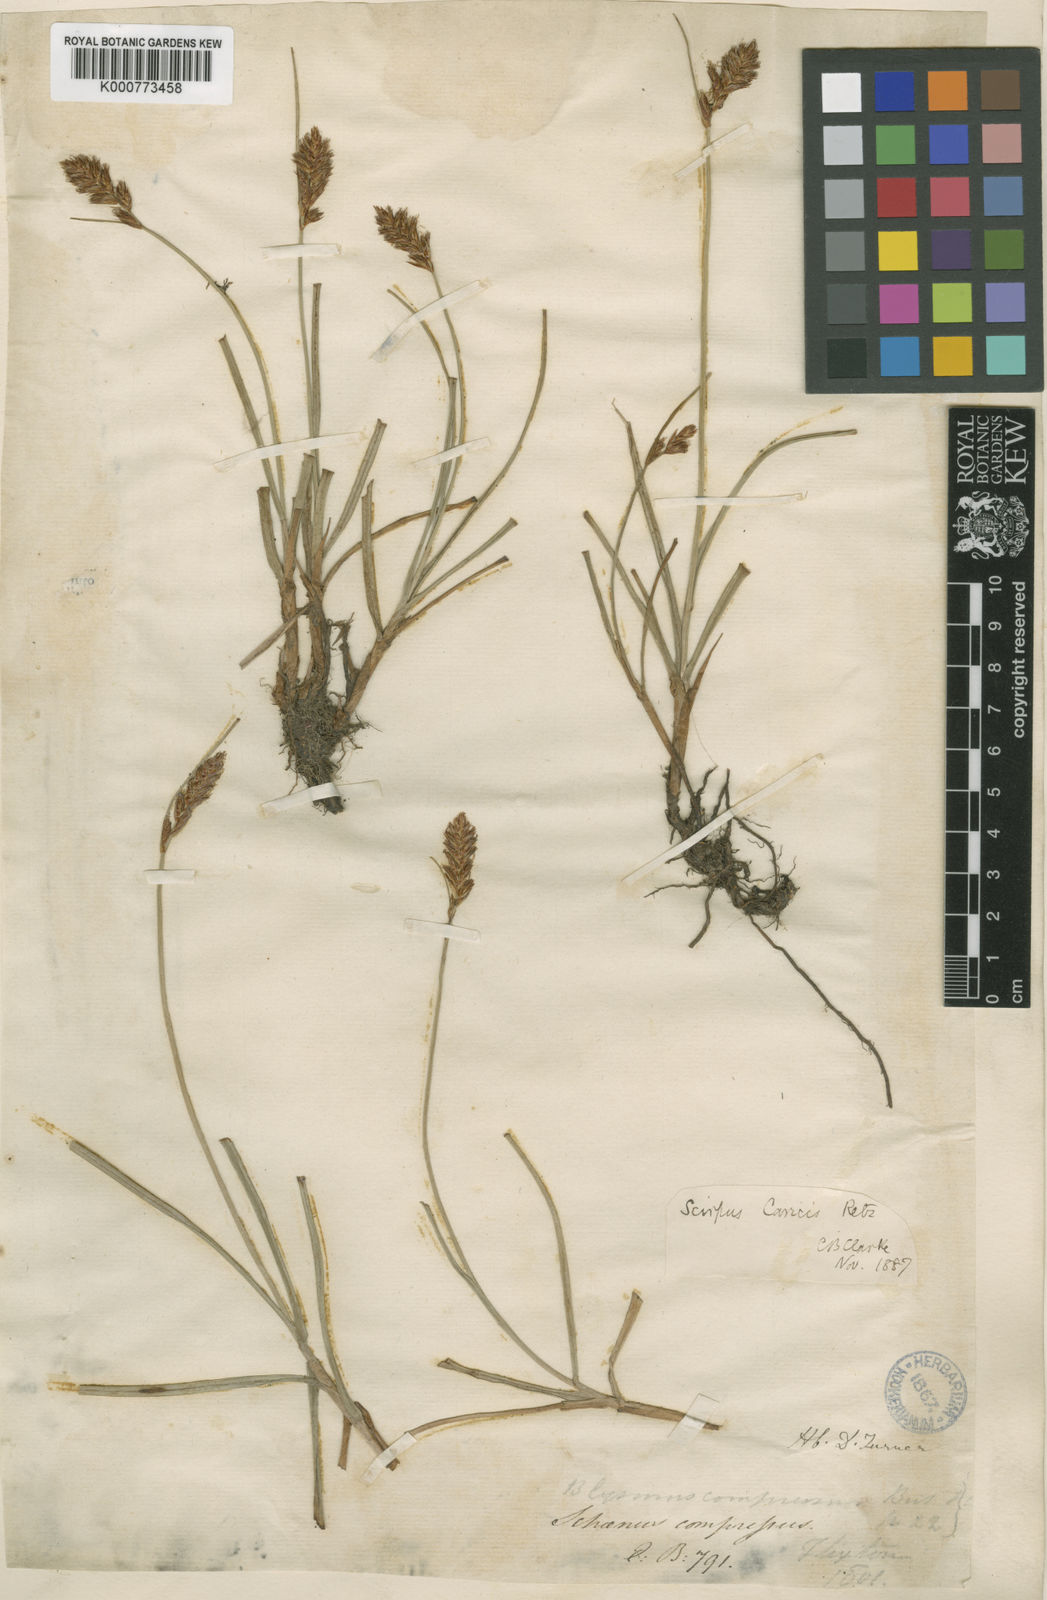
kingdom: Plantae
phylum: Tracheophyta
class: Liliopsida
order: Poales
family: Cyperaceae
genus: Blysmus
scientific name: Blysmus compressus
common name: Flat-sedge
